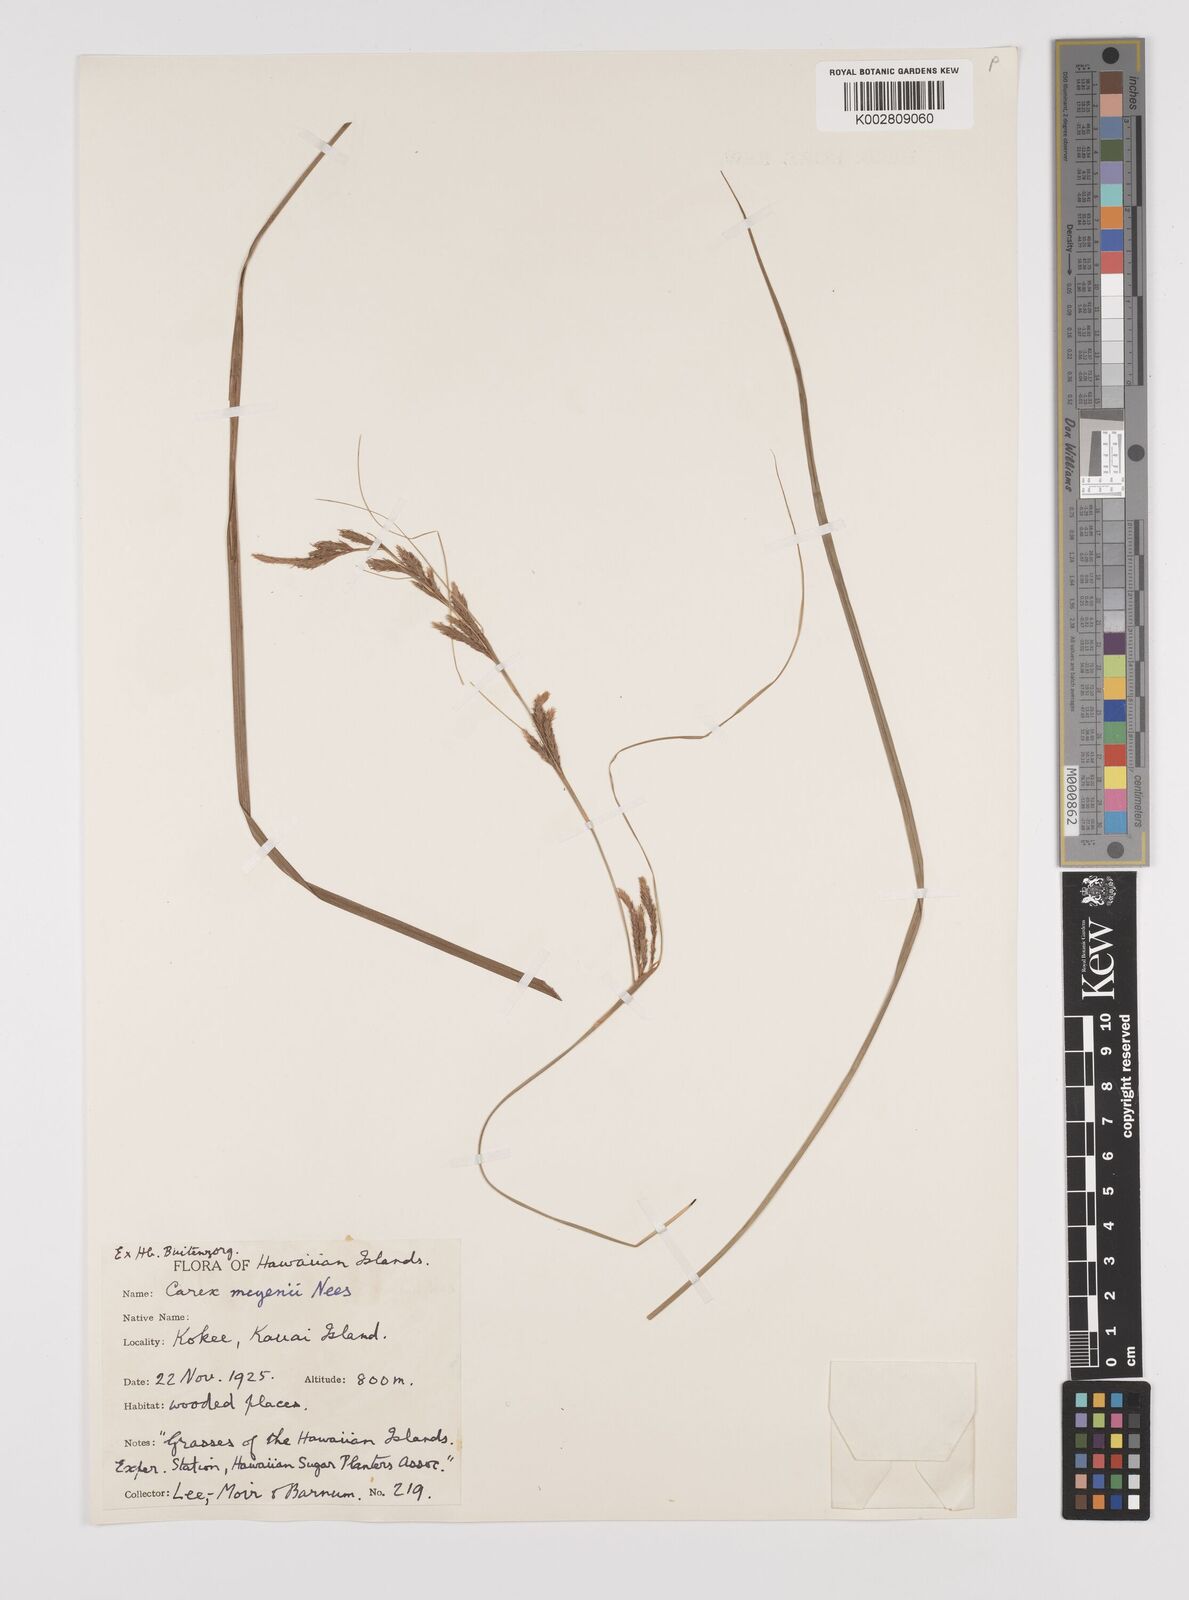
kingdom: Plantae
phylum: Tracheophyta
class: Liliopsida
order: Poales
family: Cyperaceae
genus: Carex
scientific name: Carex brunnea
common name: Greater brown sedge
